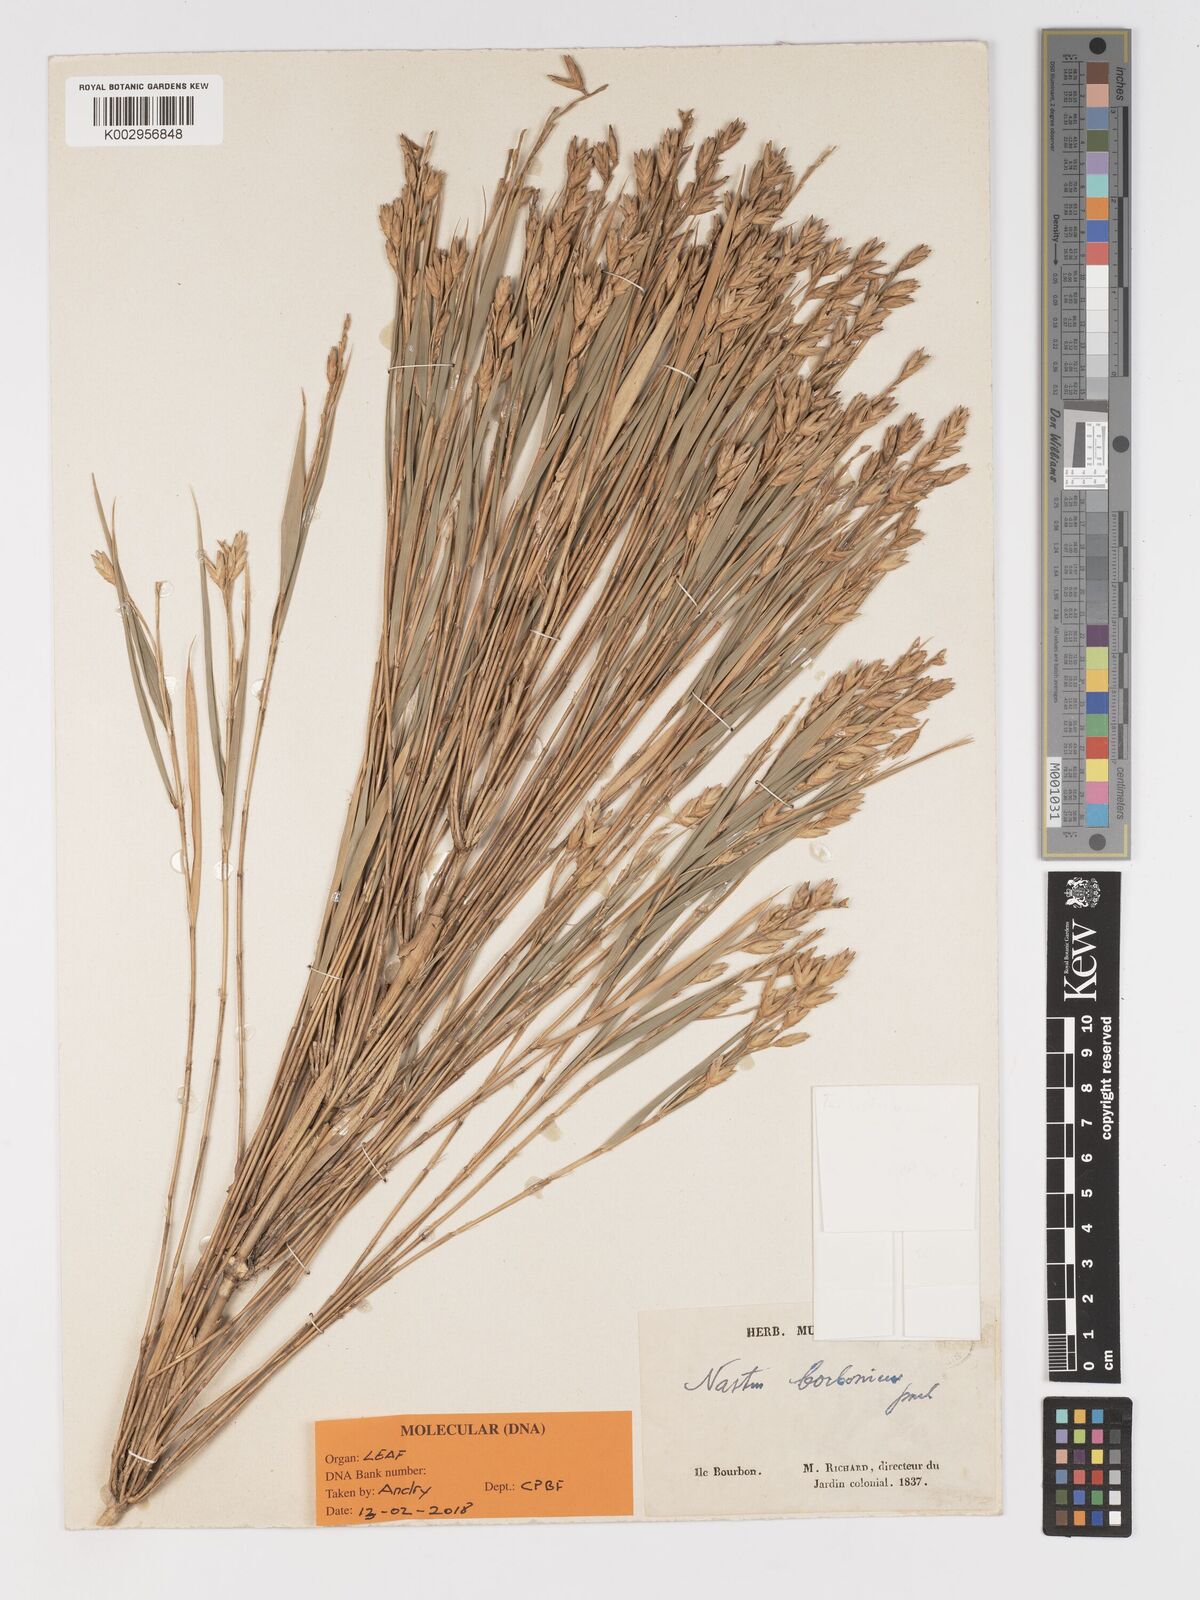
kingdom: Plantae
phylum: Tracheophyta
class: Liliopsida
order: Poales
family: Poaceae
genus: Nastus
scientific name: Nastus borbonicus
